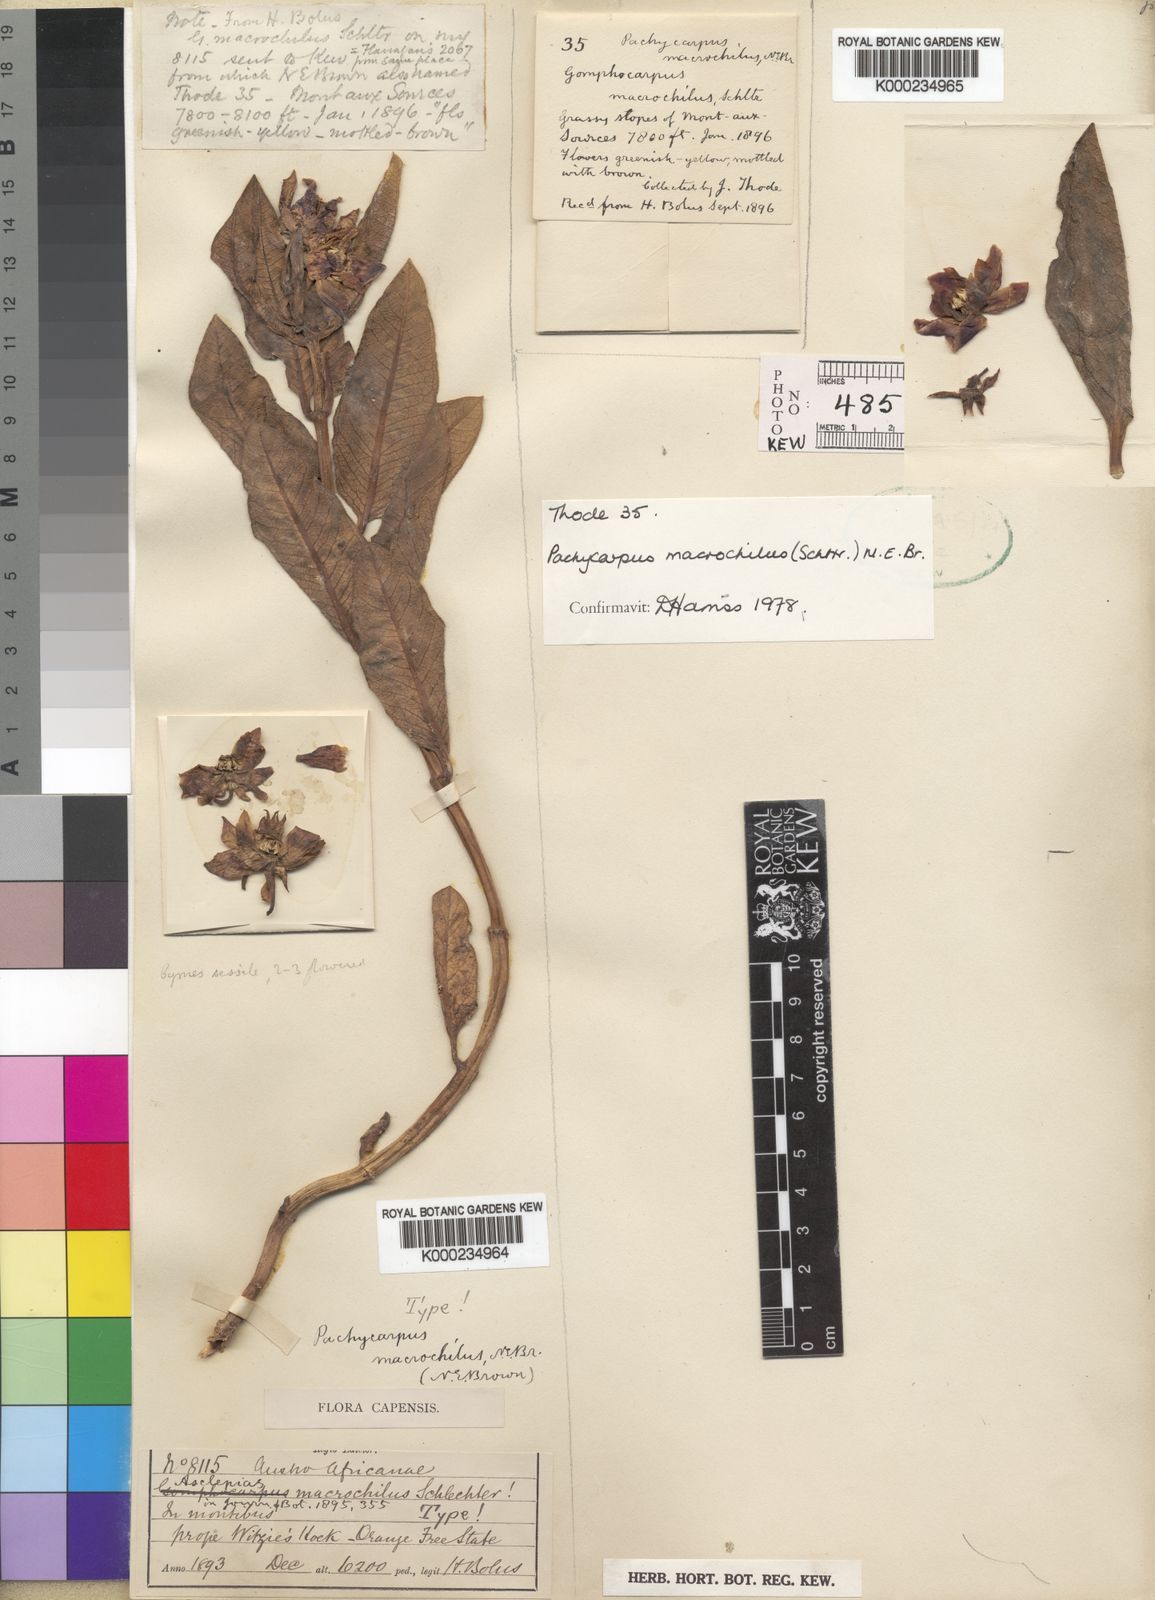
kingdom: Plantae
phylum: Tracheophyta
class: Magnoliopsida
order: Gentianales
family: Apocynaceae
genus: Pachycarpus
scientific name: Pachycarpus macrochilus
